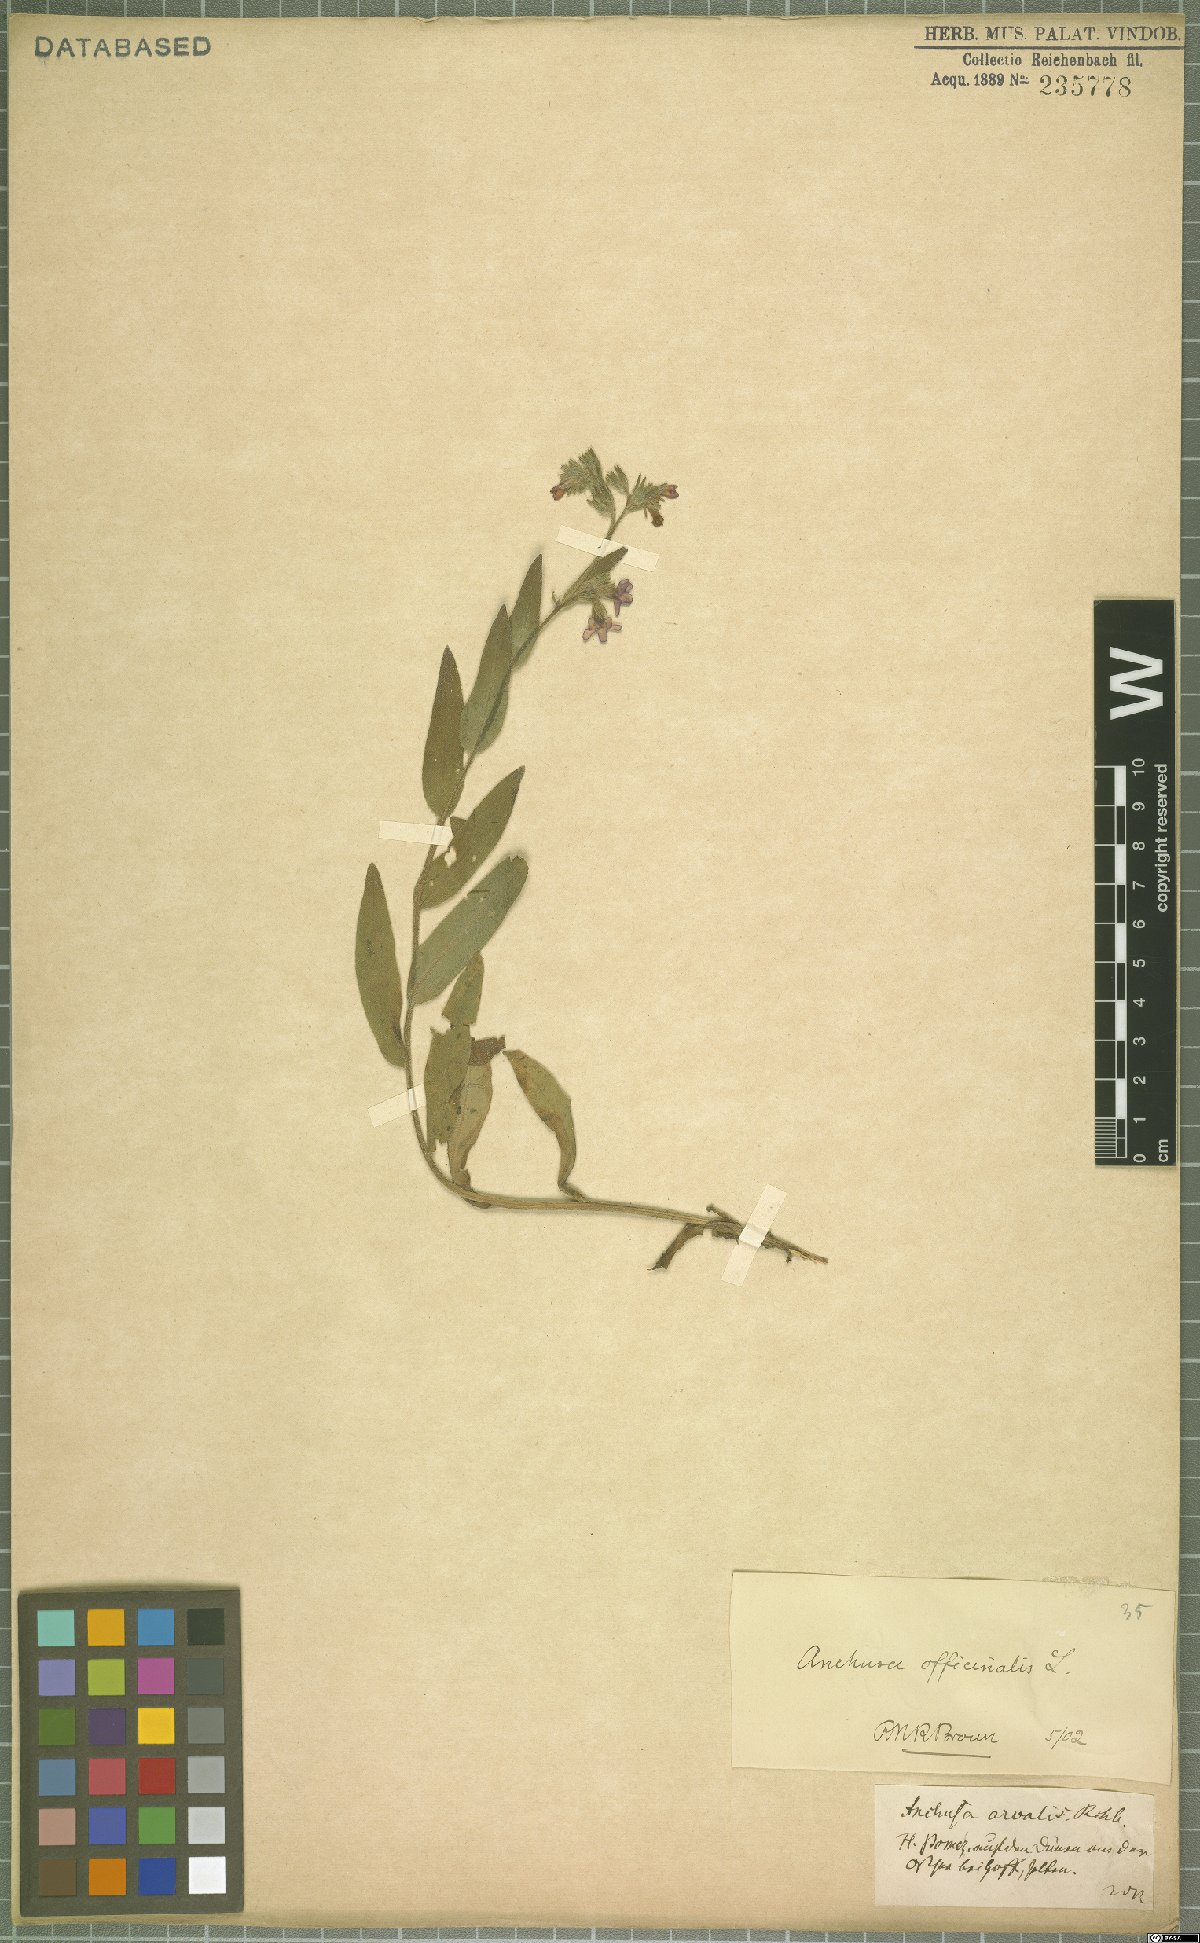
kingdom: Plantae
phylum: Tracheophyta
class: Magnoliopsida
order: Boraginales
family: Boraginaceae
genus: Anchusa
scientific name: Anchusa officinalis
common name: Alkanet
